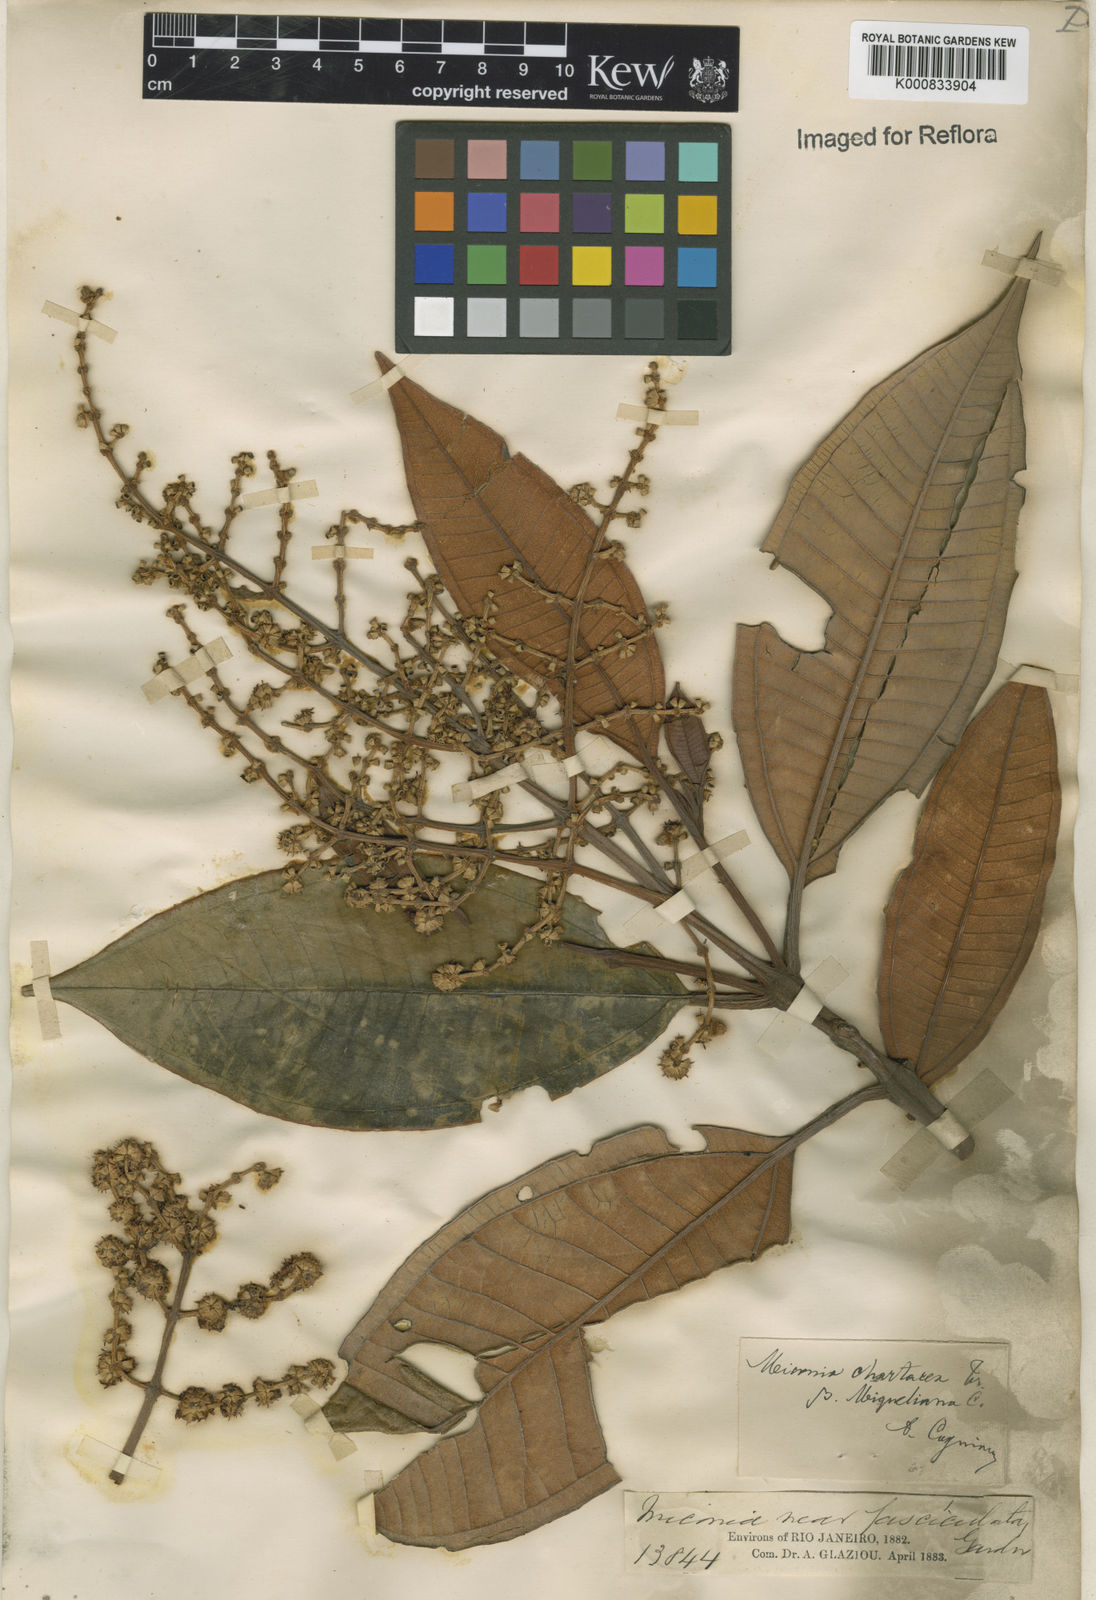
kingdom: Plantae
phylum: Tracheophyta
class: Magnoliopsida
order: Myrtales
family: Melastomataceae
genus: Miconia
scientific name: Miconia chartacea
